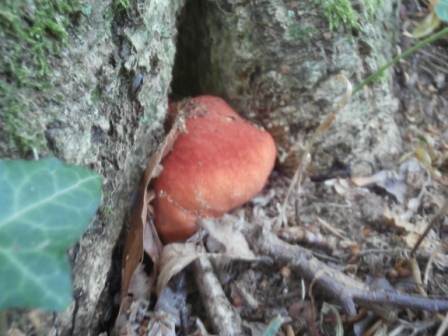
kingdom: Fungi
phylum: Basidiomycota
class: Agaricomycetes
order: Agaricales
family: Fistulinaceae
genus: Fistulina
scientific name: Fistulina hepatica
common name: oksetunge
